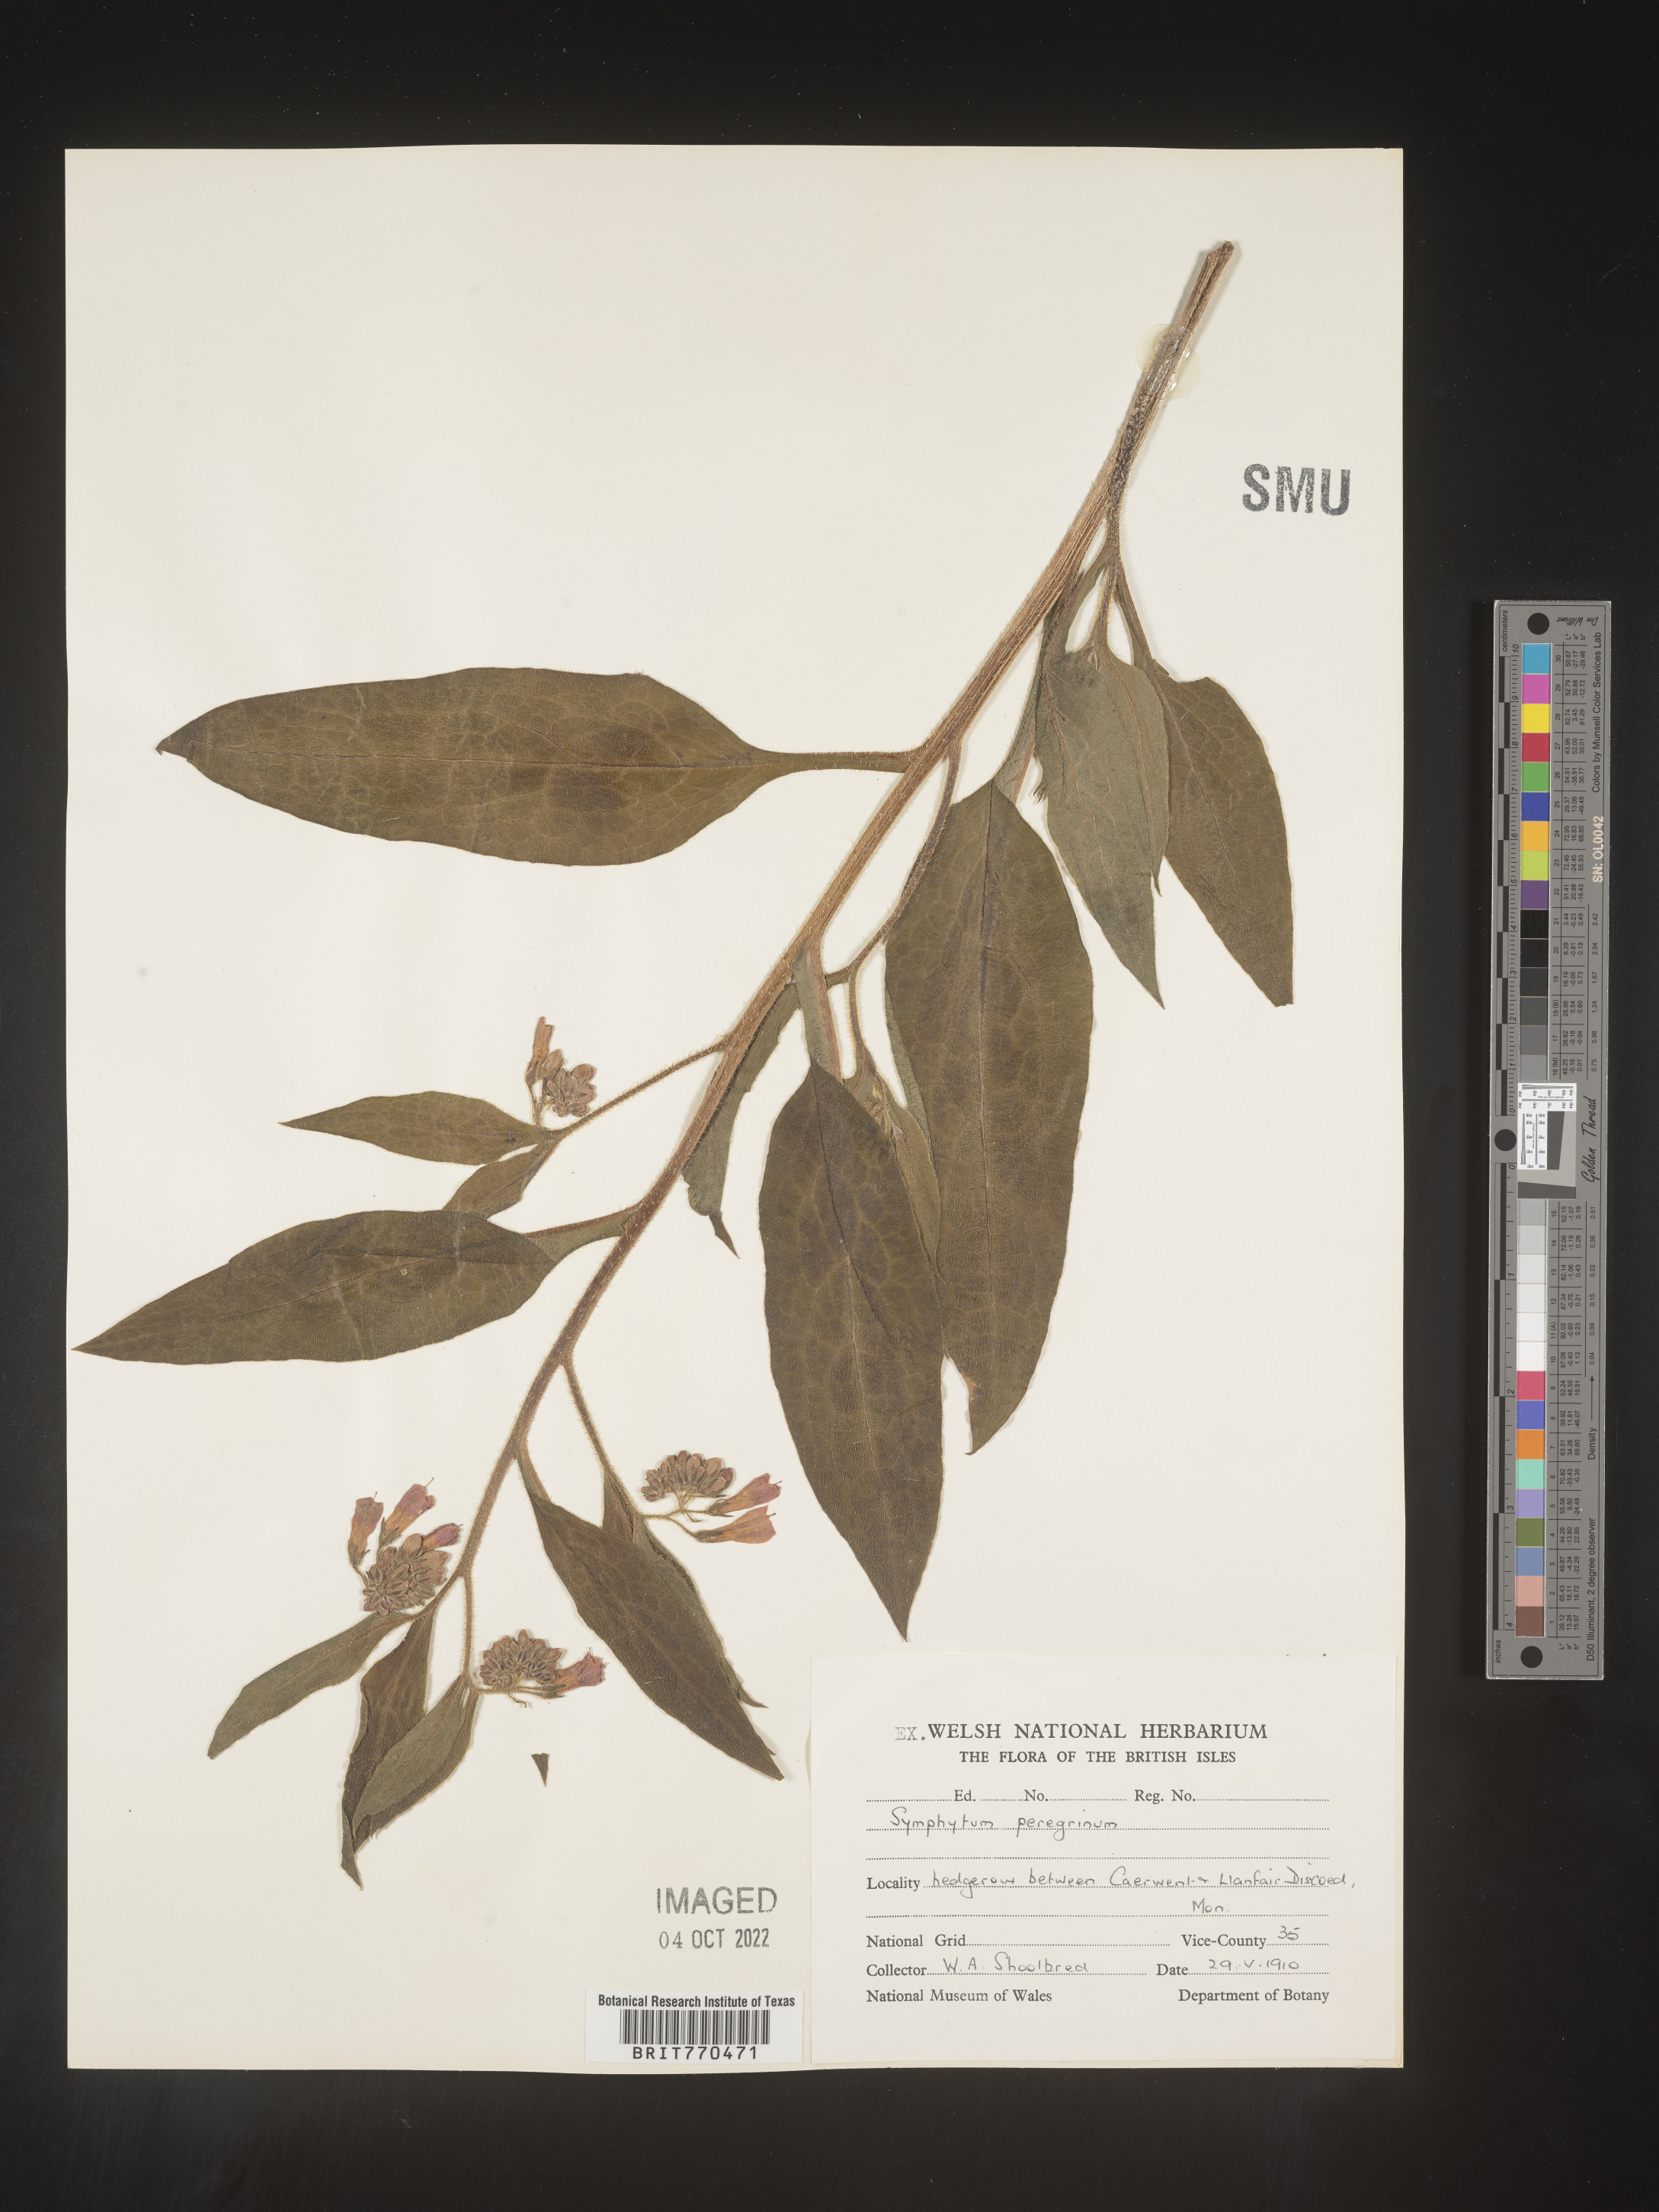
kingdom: Plantae
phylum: Tracheophyta
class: Magnoliopsida
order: Boraginales
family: Boraginaceae
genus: Symphytum
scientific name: Symphytum
